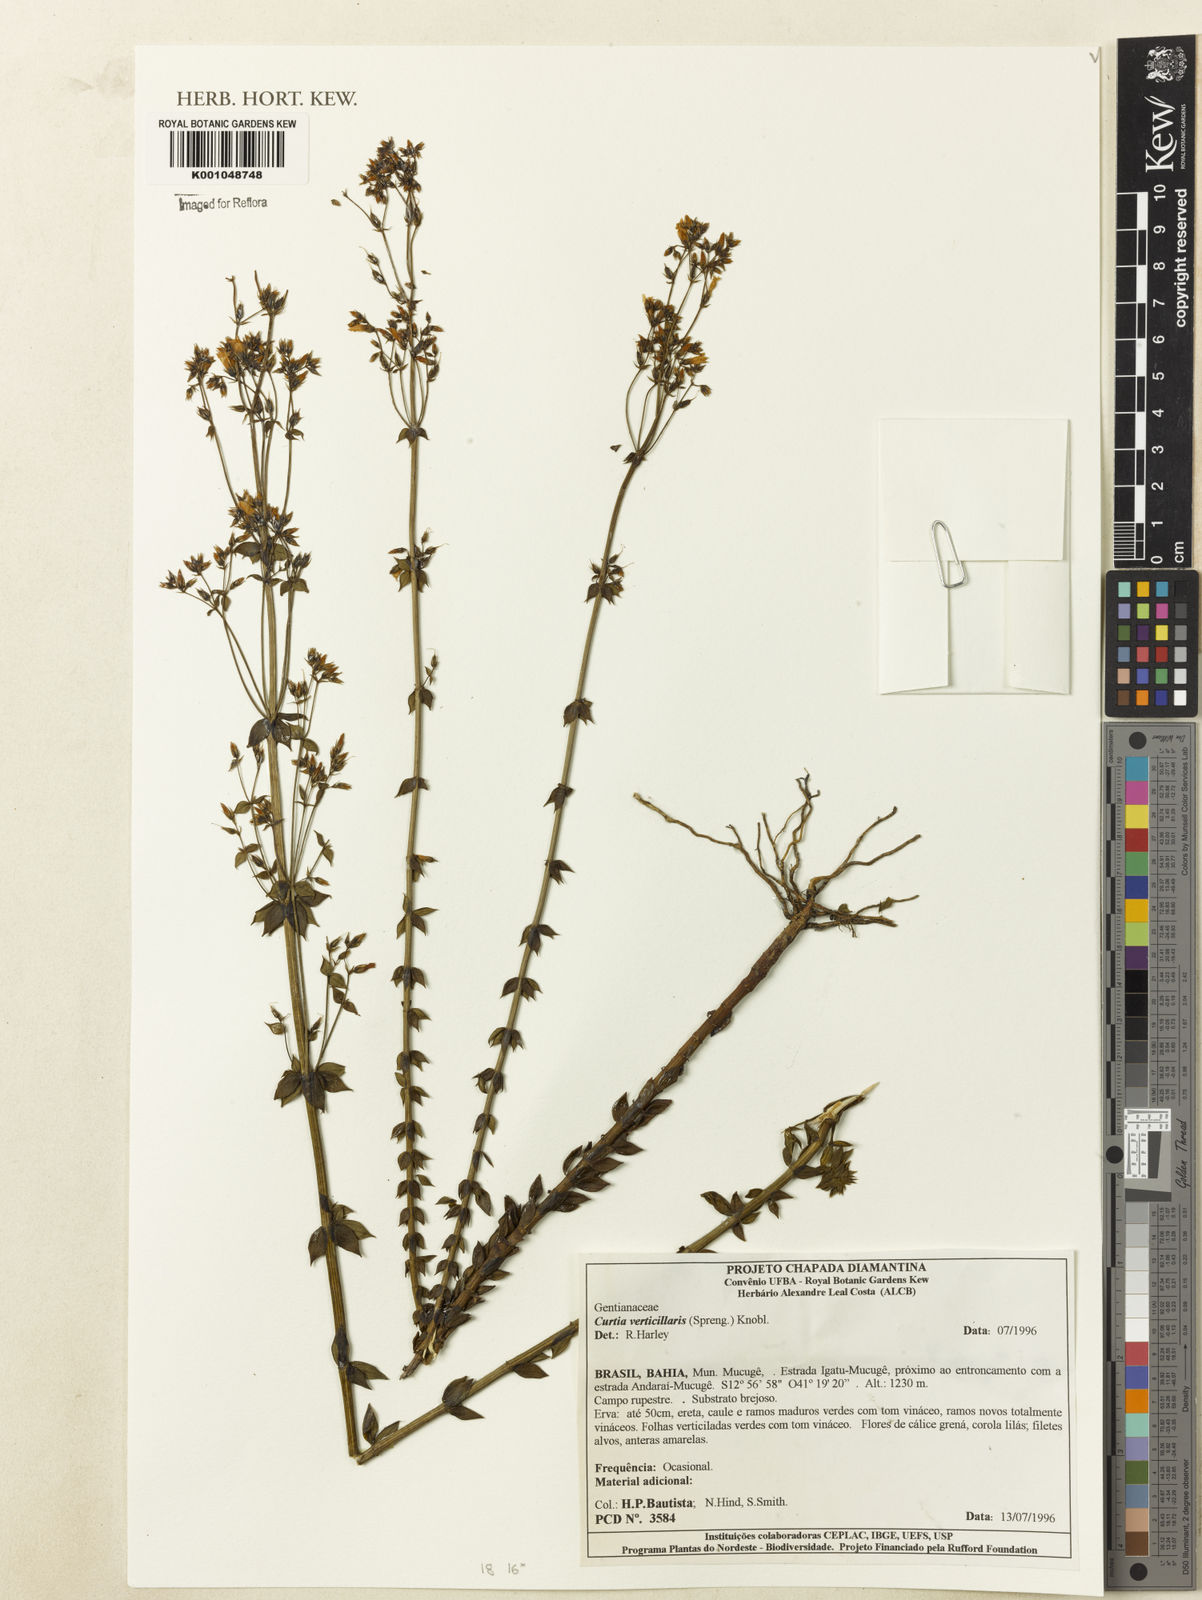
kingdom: Plantae
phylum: Tracheophyta
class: Magnoliopsida
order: Gentianales
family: Gentianaceae
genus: Curtia
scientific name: Curtia verticillaris
